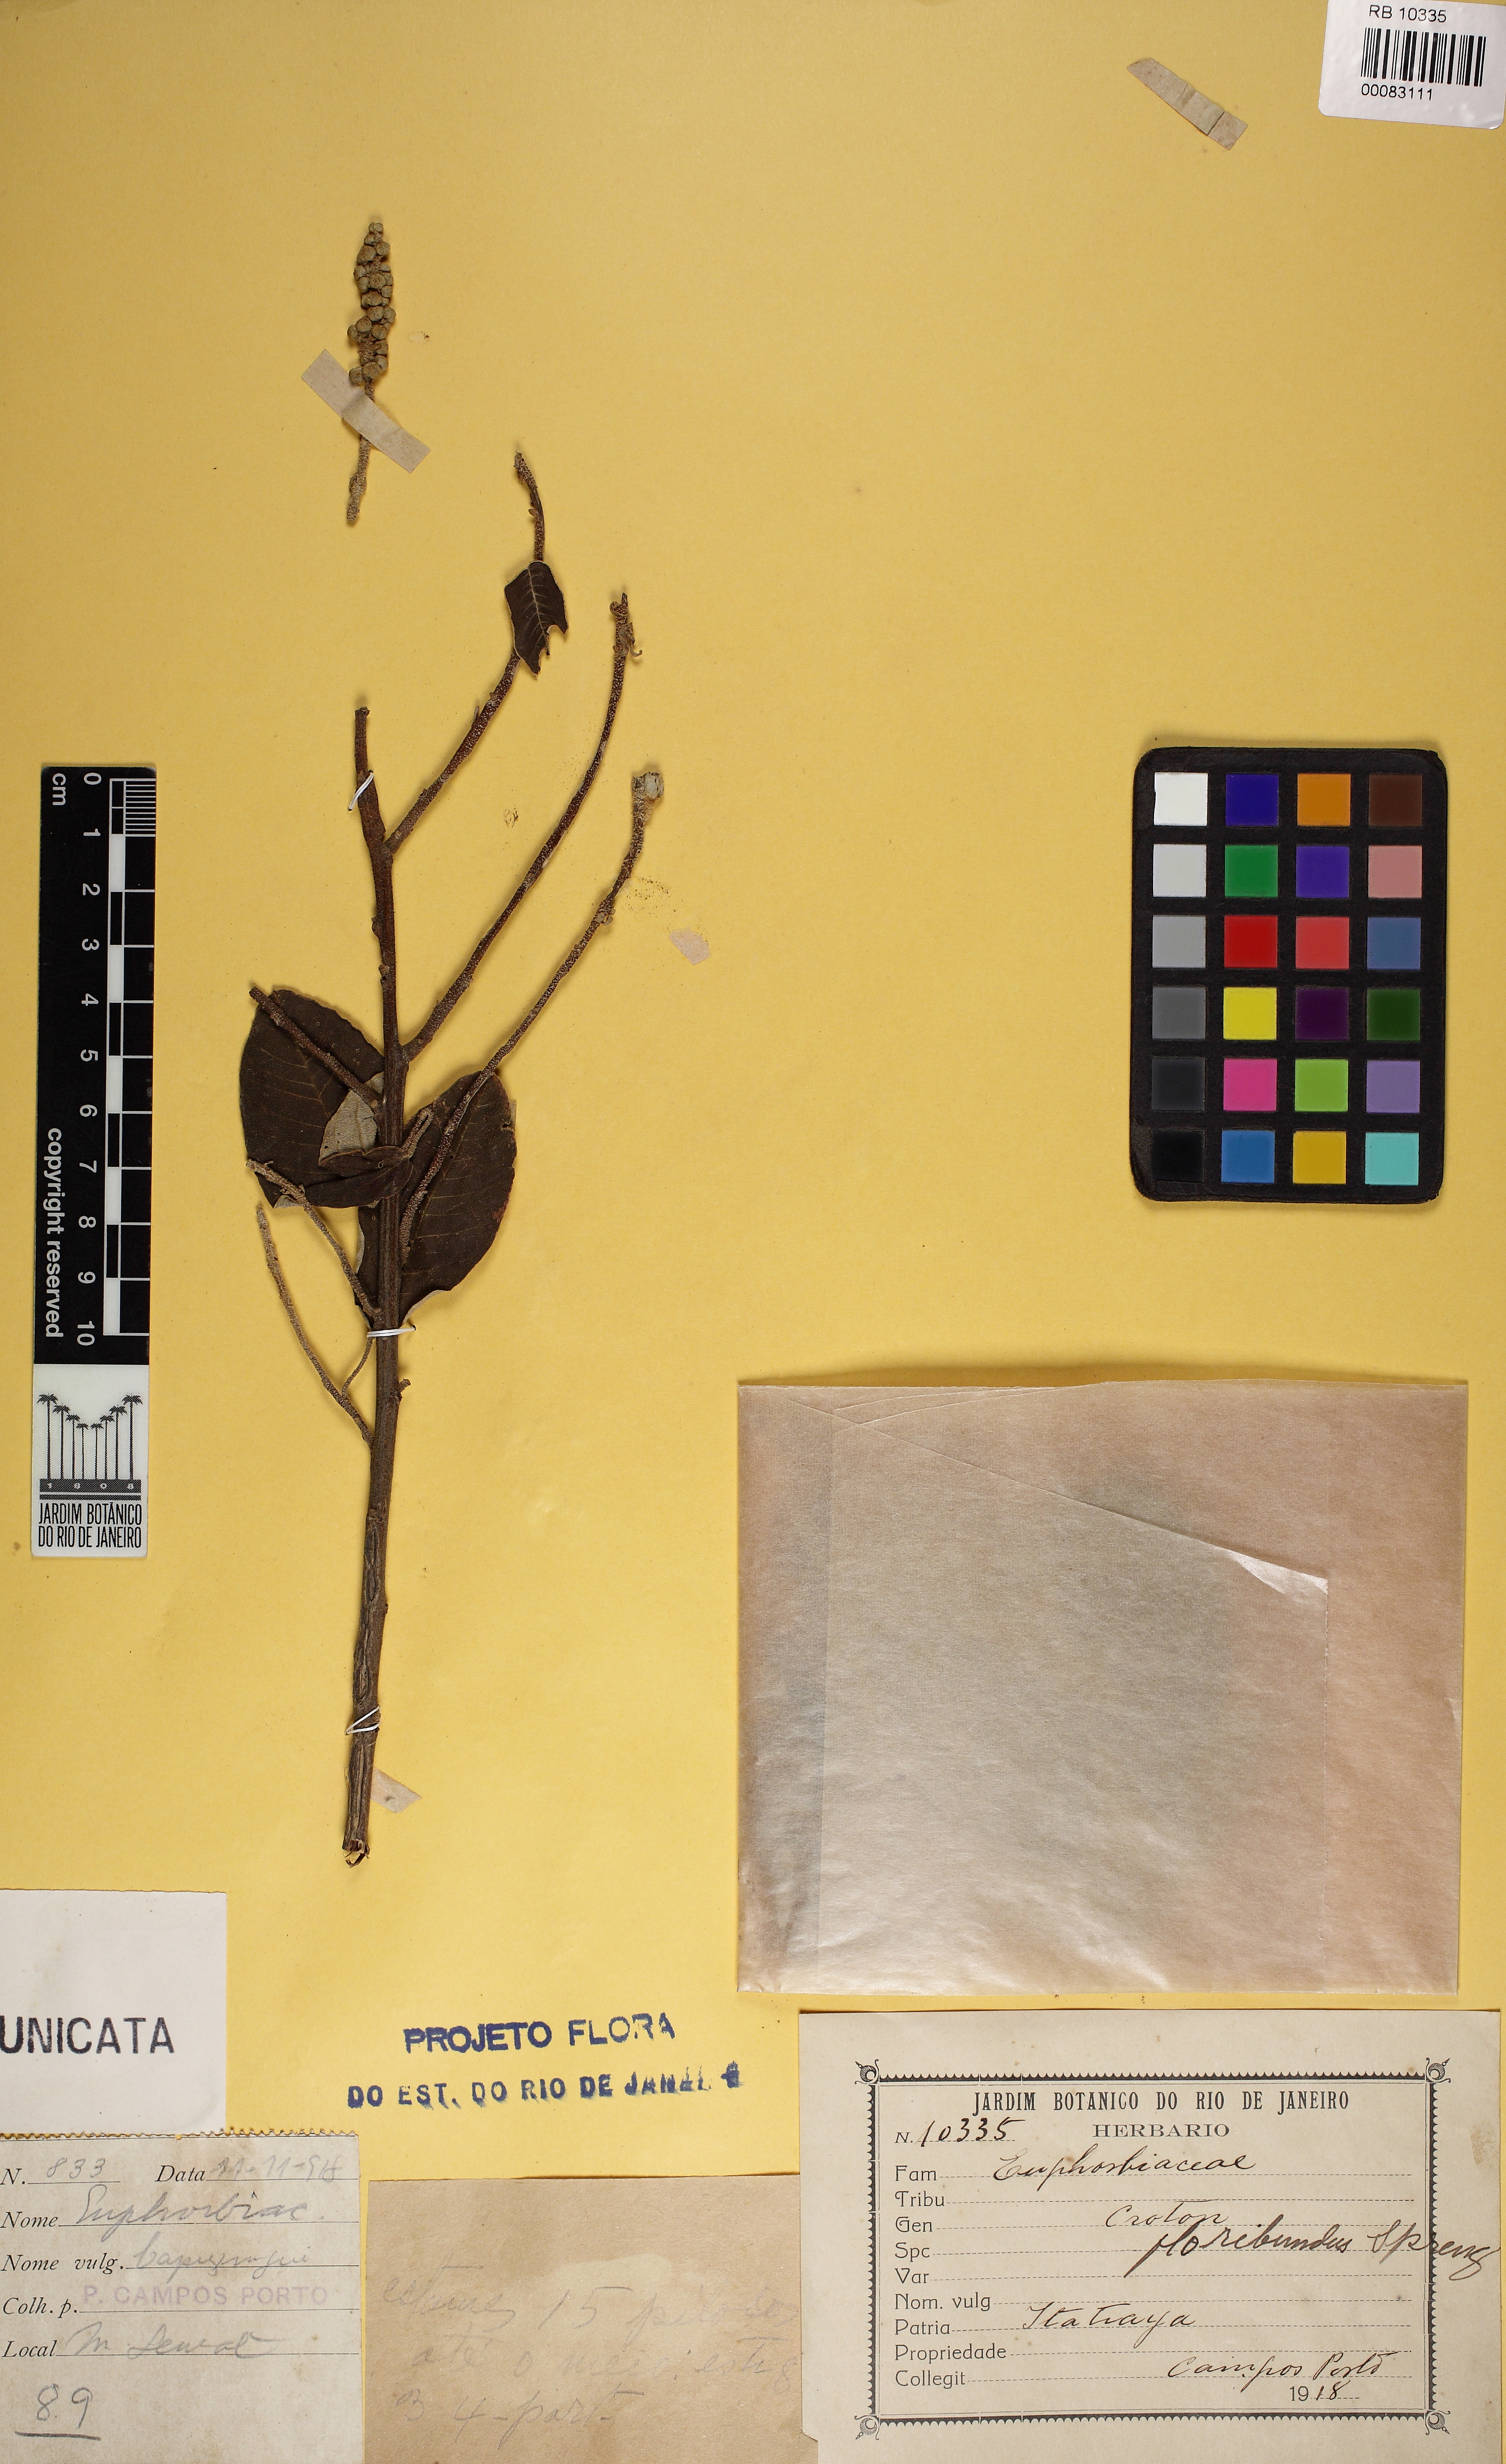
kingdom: Plantae
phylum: Tracheophyta
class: Magnoliopsida
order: Malpighiales
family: Euphorbiaceae
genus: Croton
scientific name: Croton floribundus
